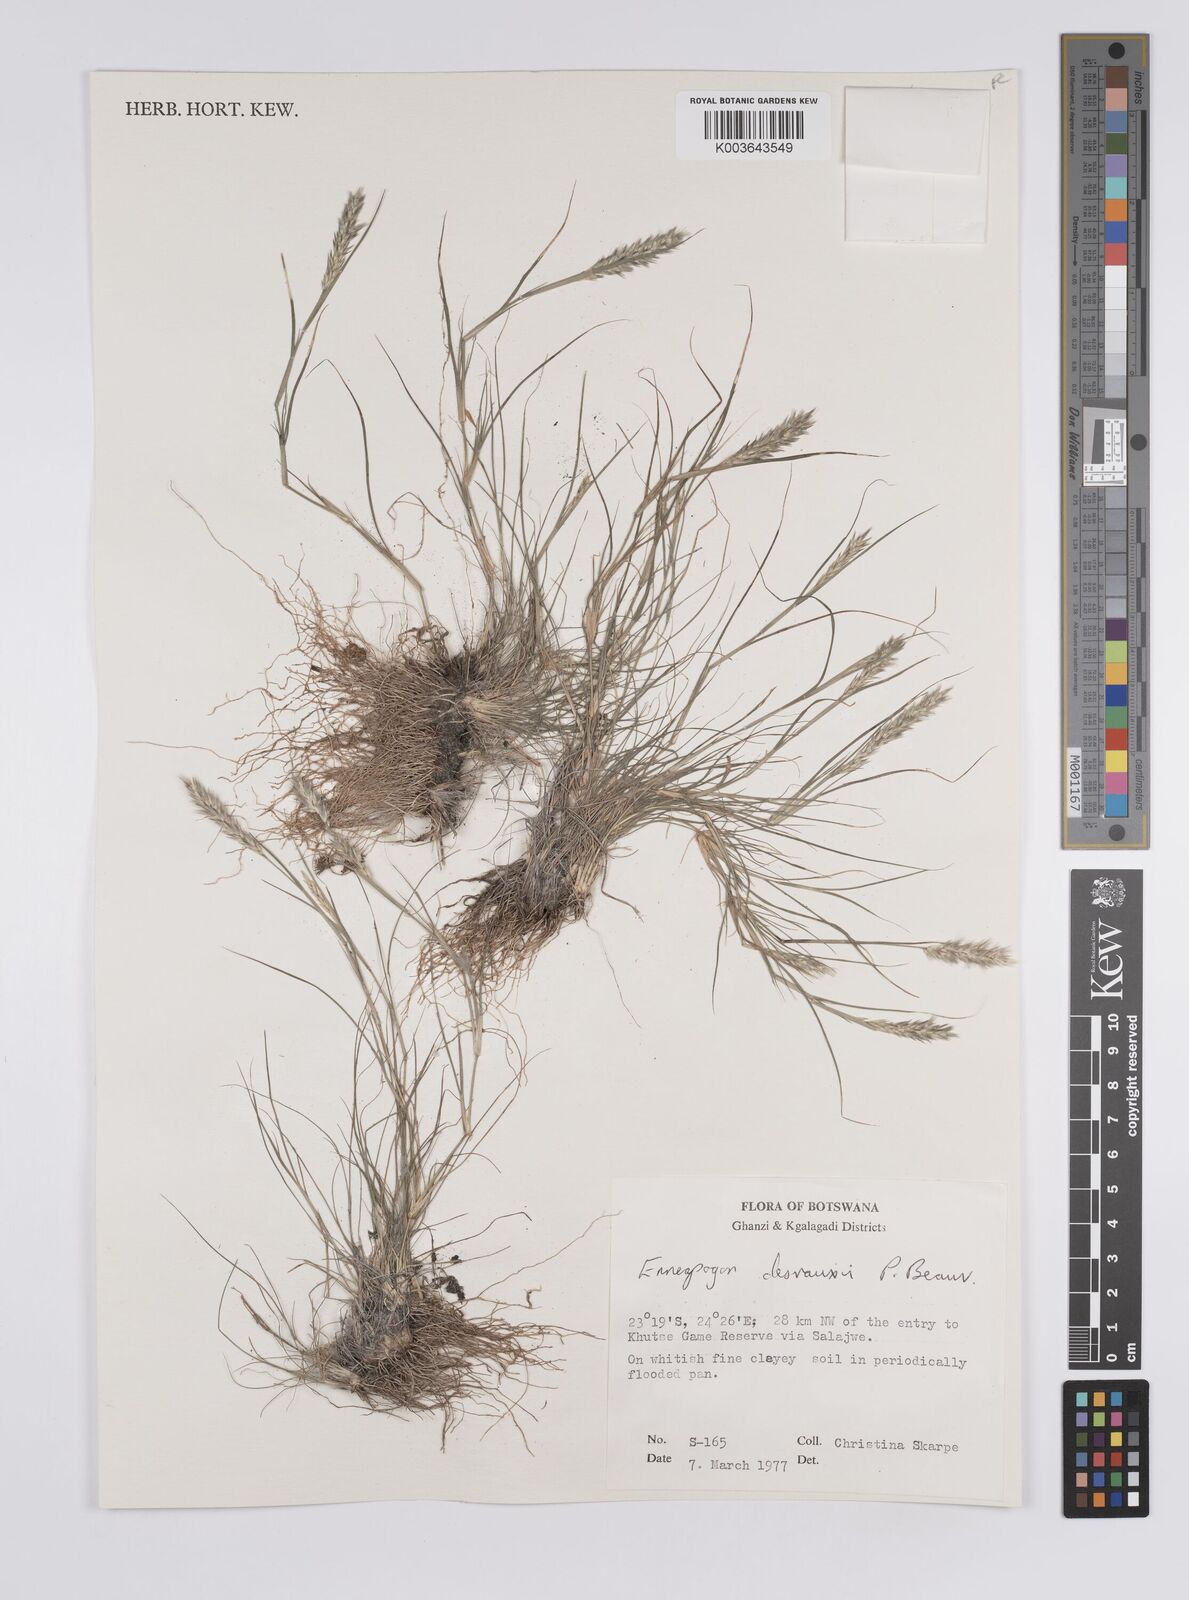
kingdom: Plantae
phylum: Tracheophyta
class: Liliopsida
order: Poales
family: Poaceae
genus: Enneapogon
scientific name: Enneapogon desvauxii
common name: Feather pappus grass
